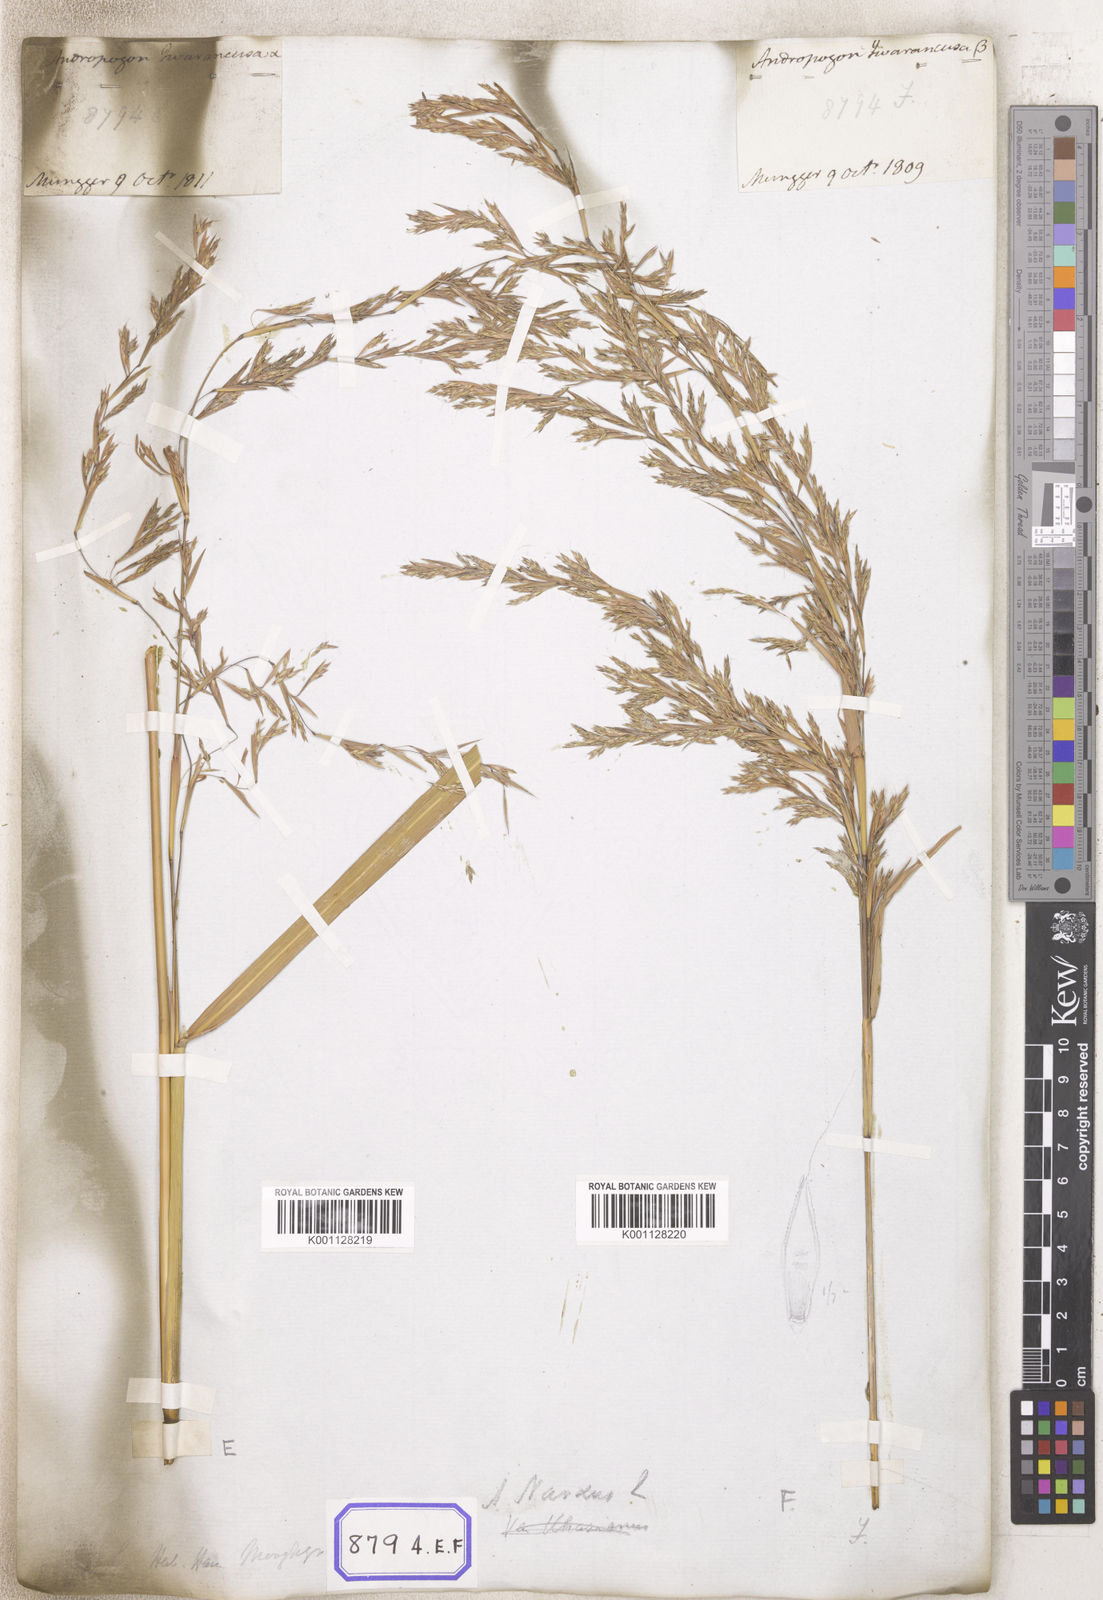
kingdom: Plantae
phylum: Tracheophyta
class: Liliopsida
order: Poales
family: Poaceae
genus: Cymbopogon
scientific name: Cymbopogon schoenanthus
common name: Geranium grass
